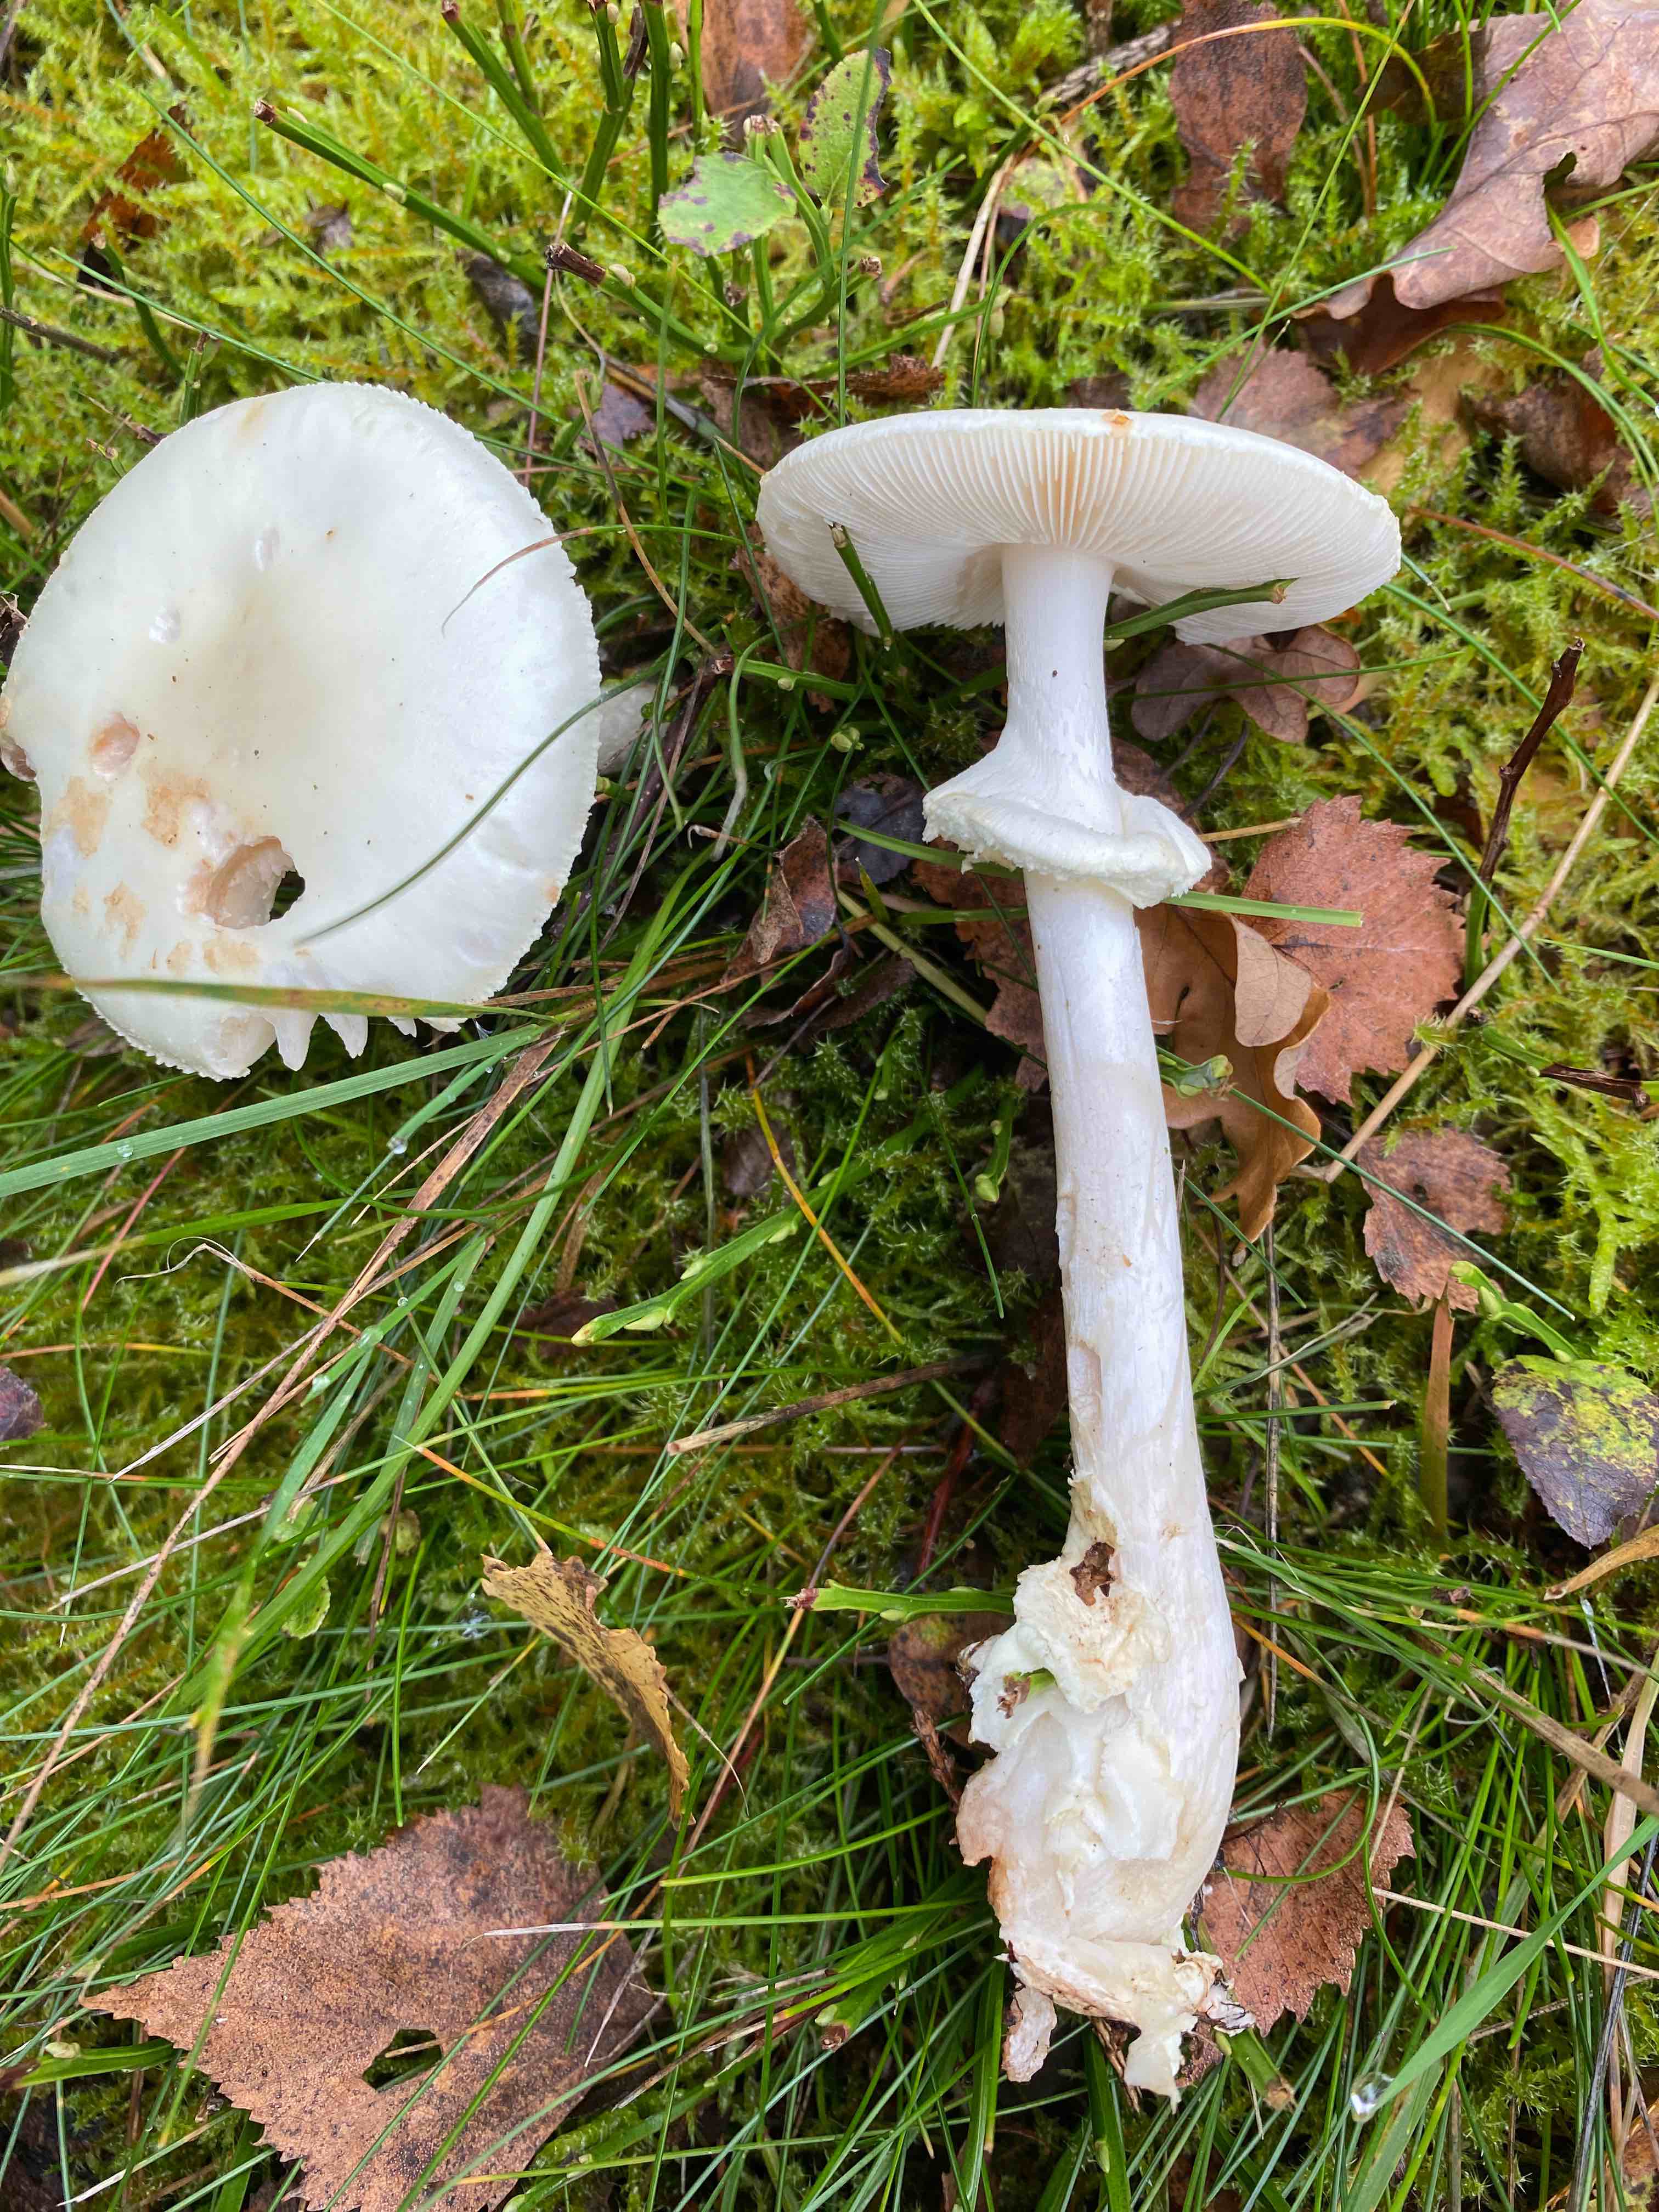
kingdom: Fungi
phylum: Basidiomycota
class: Agaricomycetes
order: Agaricales
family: Amanitaceae
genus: Amanita
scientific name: Amanita citrina
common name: kugleknoldet fluesvamp
